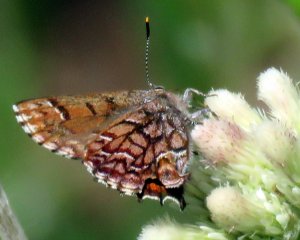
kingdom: Animalia
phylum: Arthropoda
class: Insecta
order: Lepidoptera
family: Lycaenidae
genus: Incisalia
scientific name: Incisalia niphon
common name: Eastern Pine Elfin
